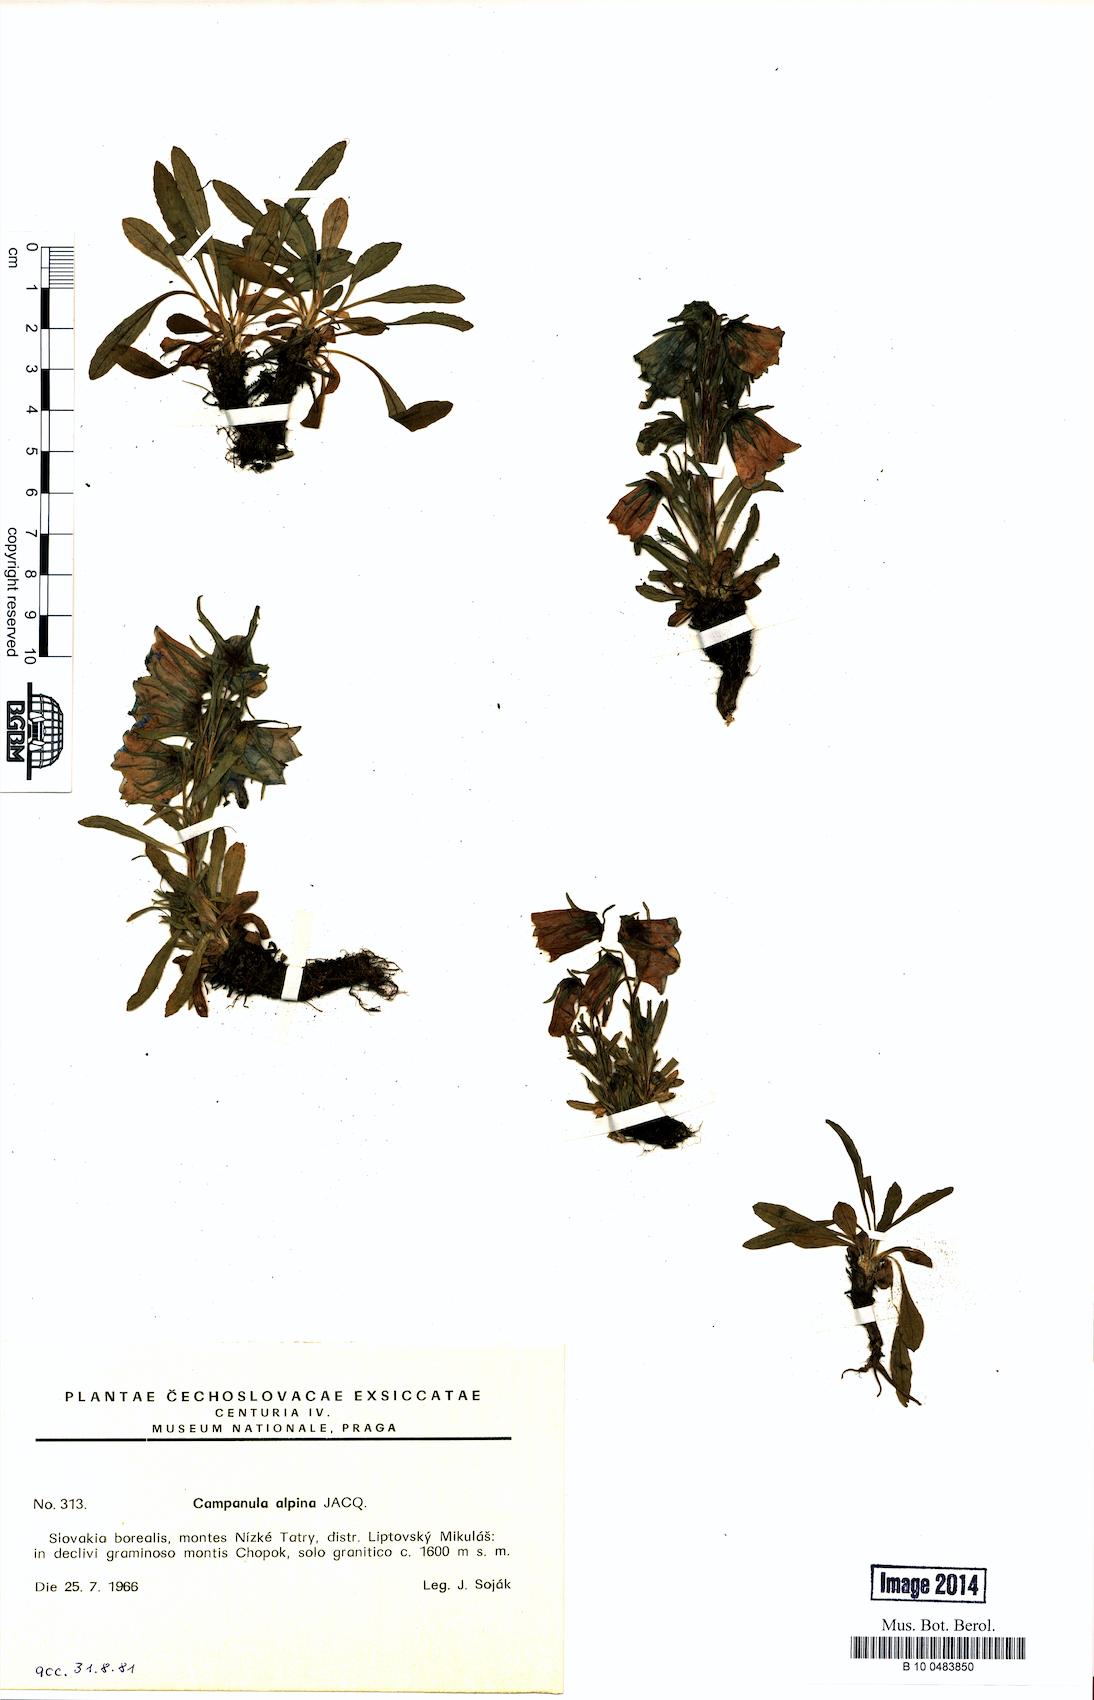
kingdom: Plantae
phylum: Tracheophyta
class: Magnoliopsida
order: Asterales
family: Campanulaceae
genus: Campanula
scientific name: Campanula alpina
